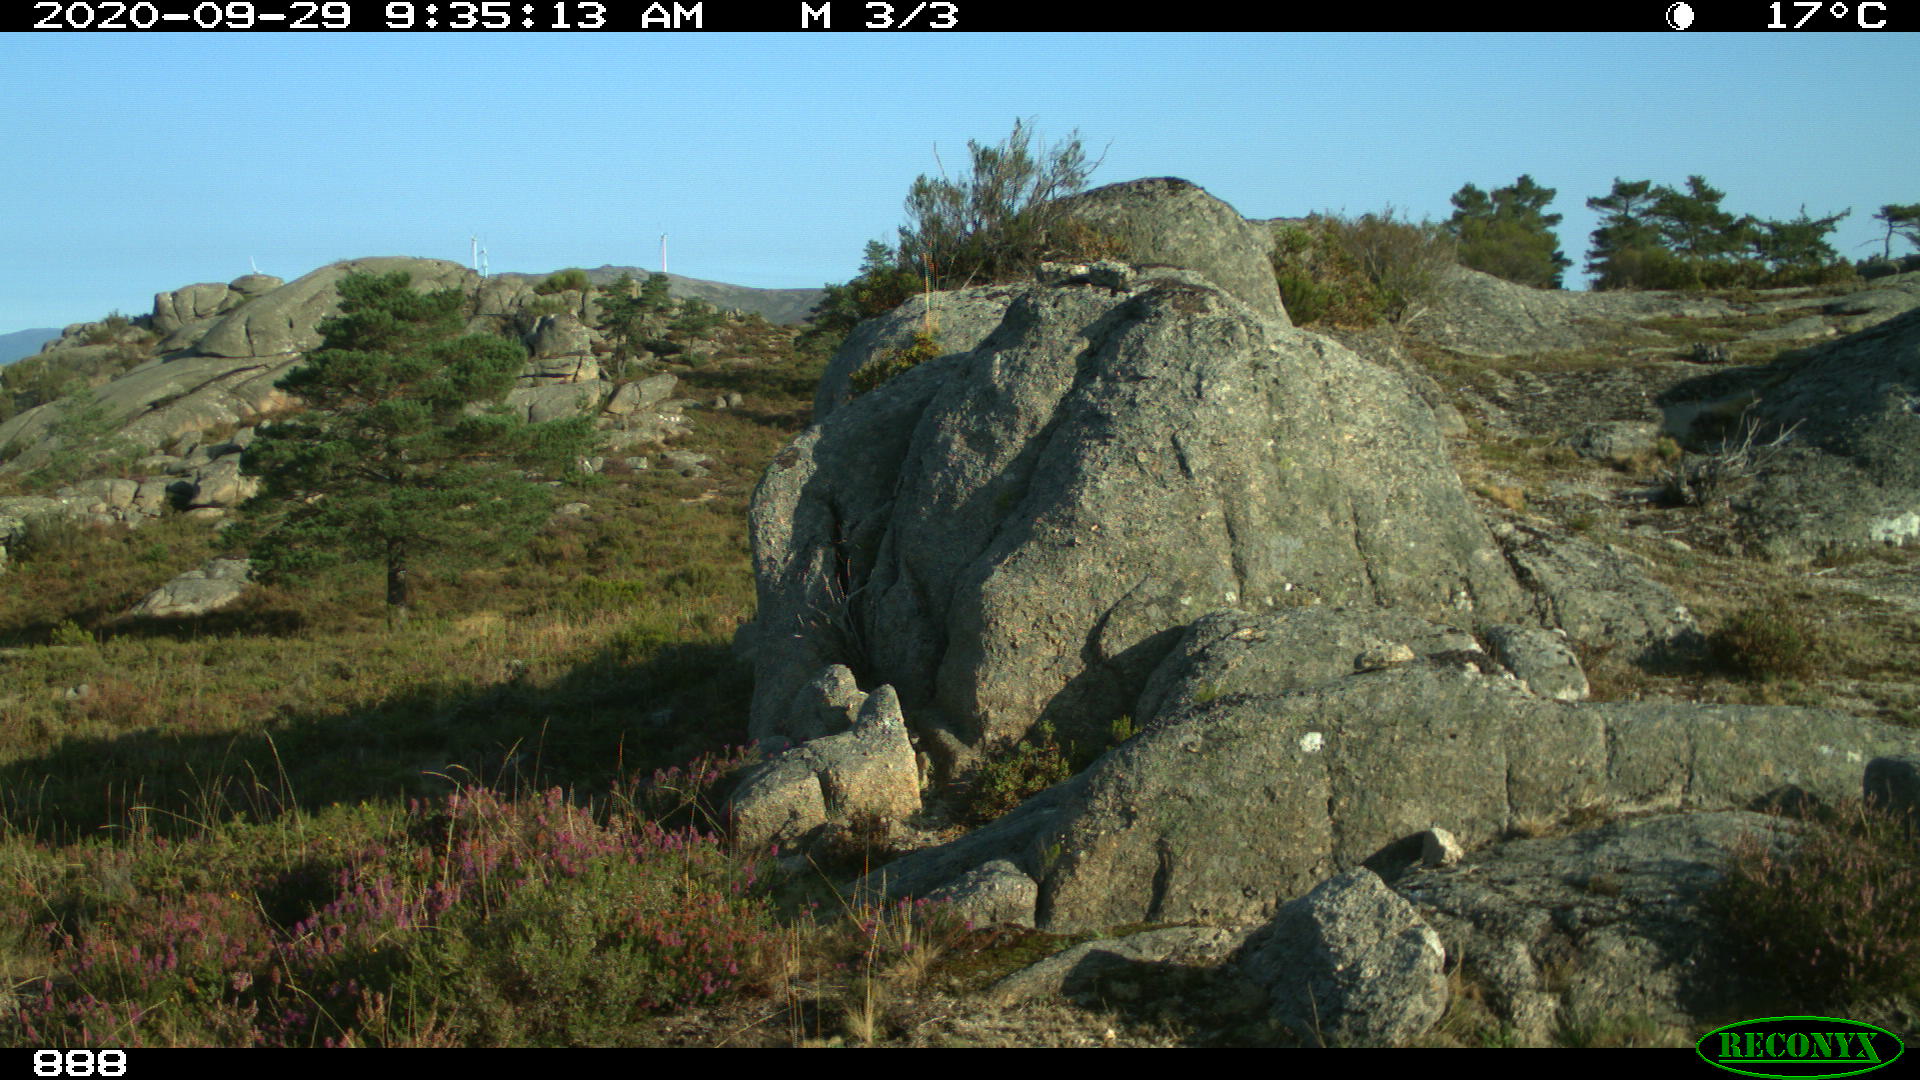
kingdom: Animalia
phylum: Chordata
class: Mammalia
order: Artiodactyla
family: Bovidae
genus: Bos
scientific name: Bos taurus
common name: Domesticated cattle
